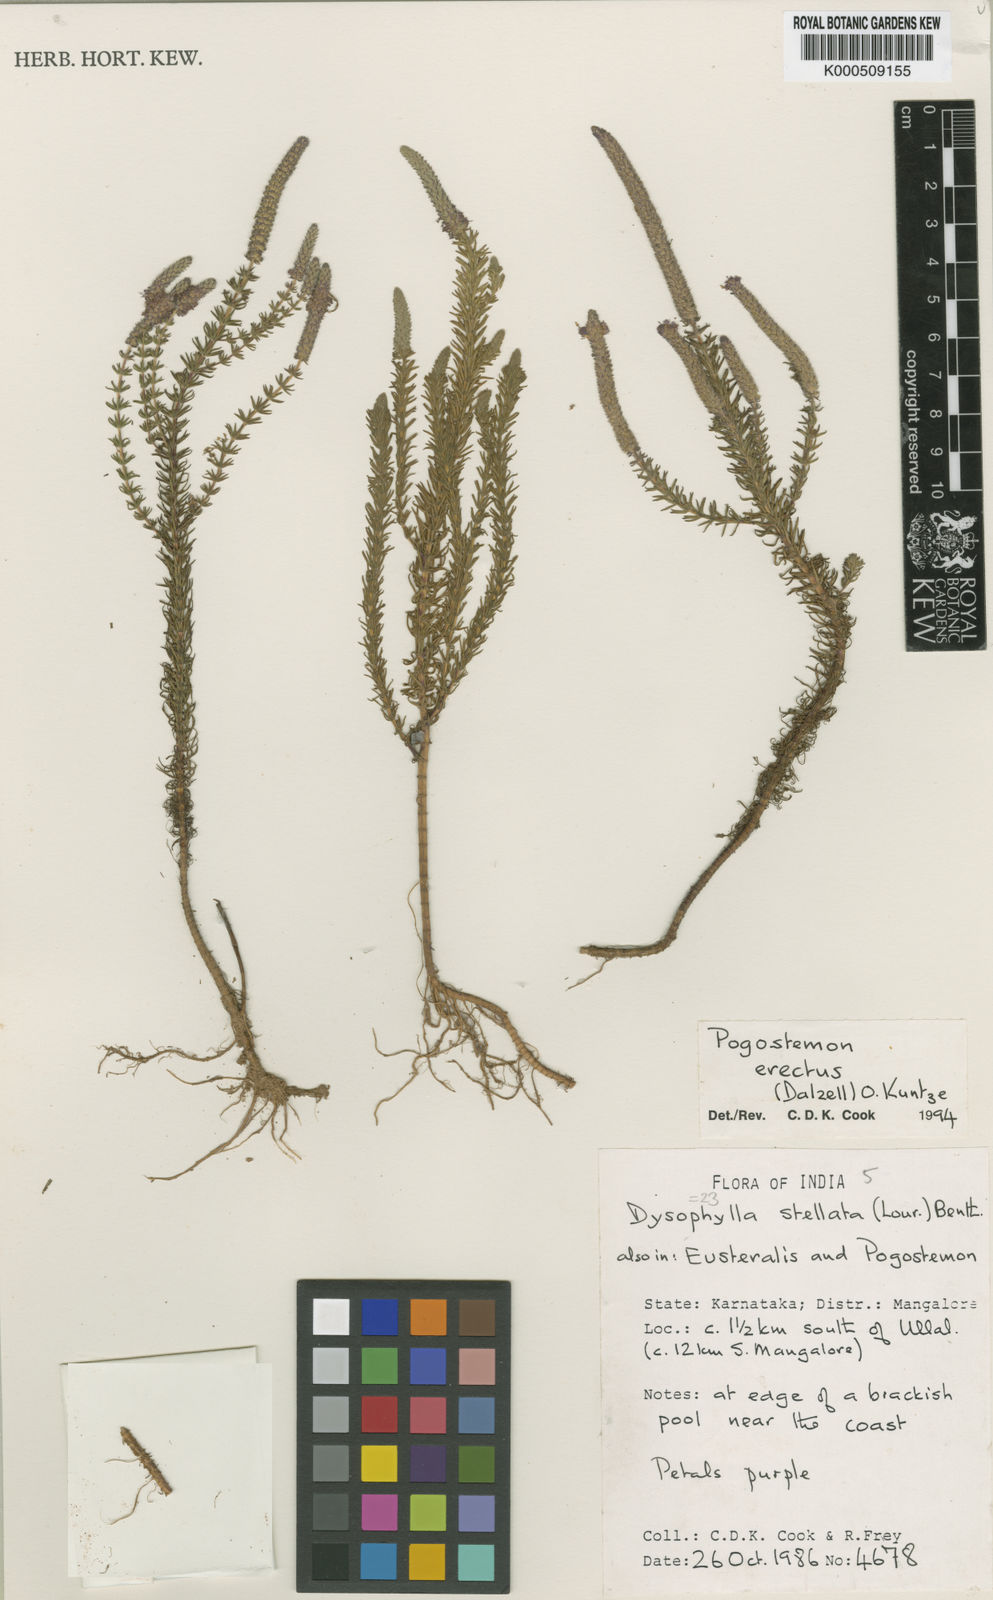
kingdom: Plantae
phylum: Tracheophyta
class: Magnoliopsida
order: Lamiales
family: Lamiaceae
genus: Pogostemon
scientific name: Pogostemon erectus
